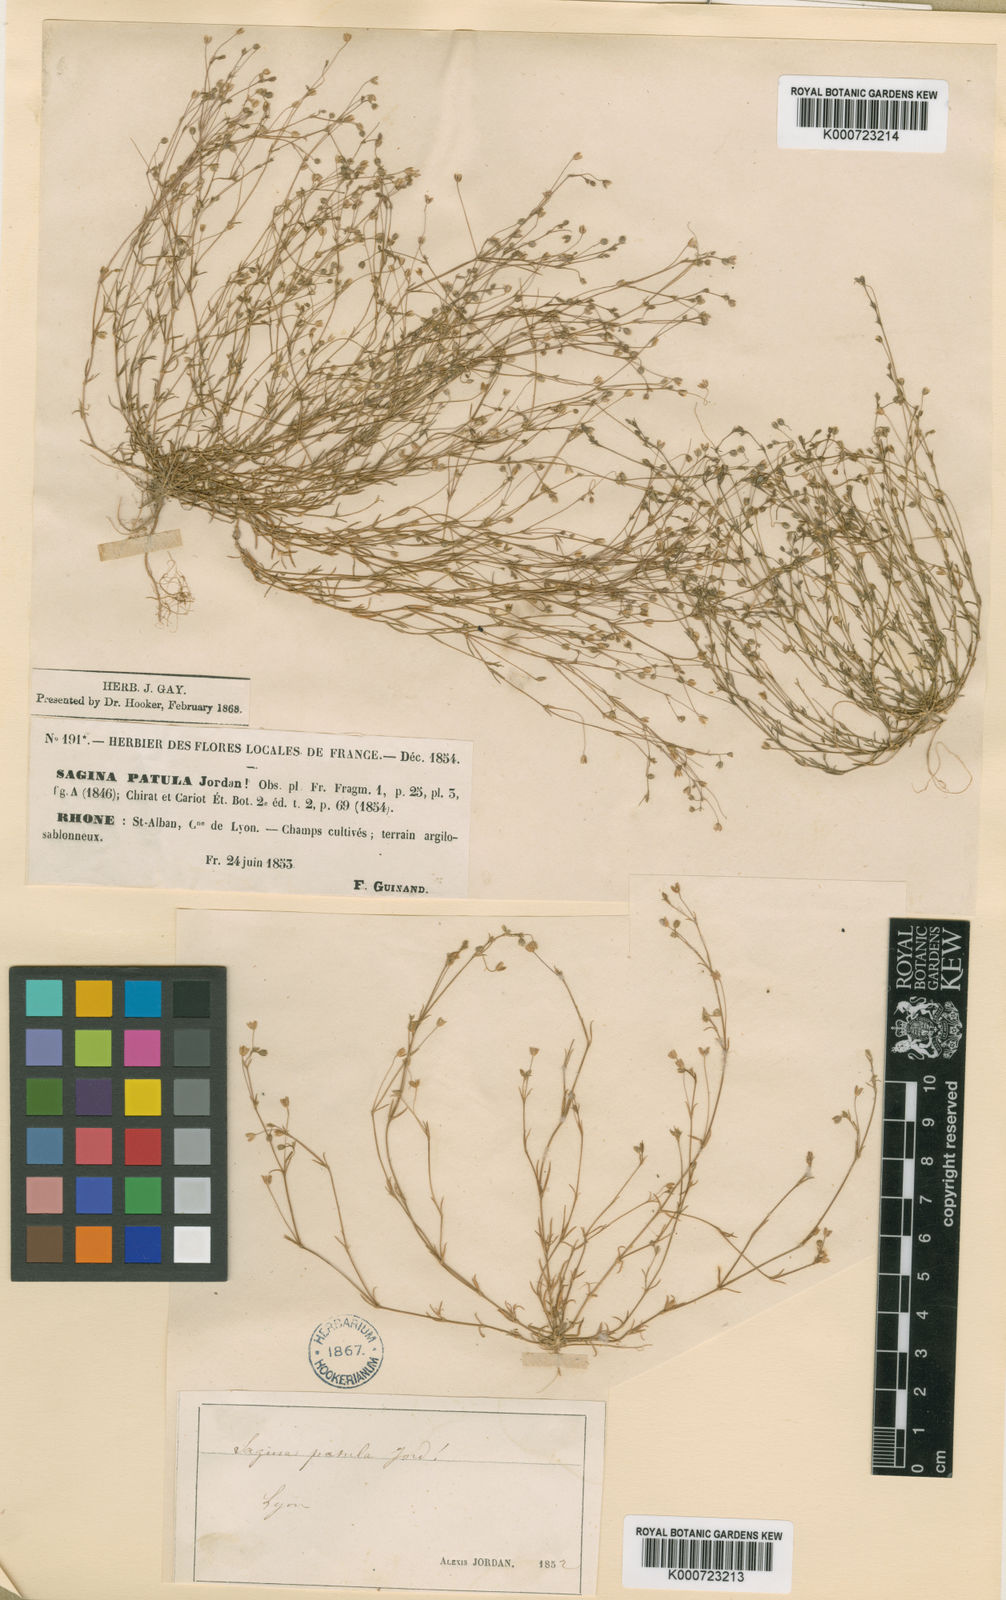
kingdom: Plantae
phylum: Tracheophyta
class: Magnoliopsida
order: Caryophyllales
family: Caryophyllaceae
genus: Sagina
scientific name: Sagina apetala
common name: Annual pearlwort
